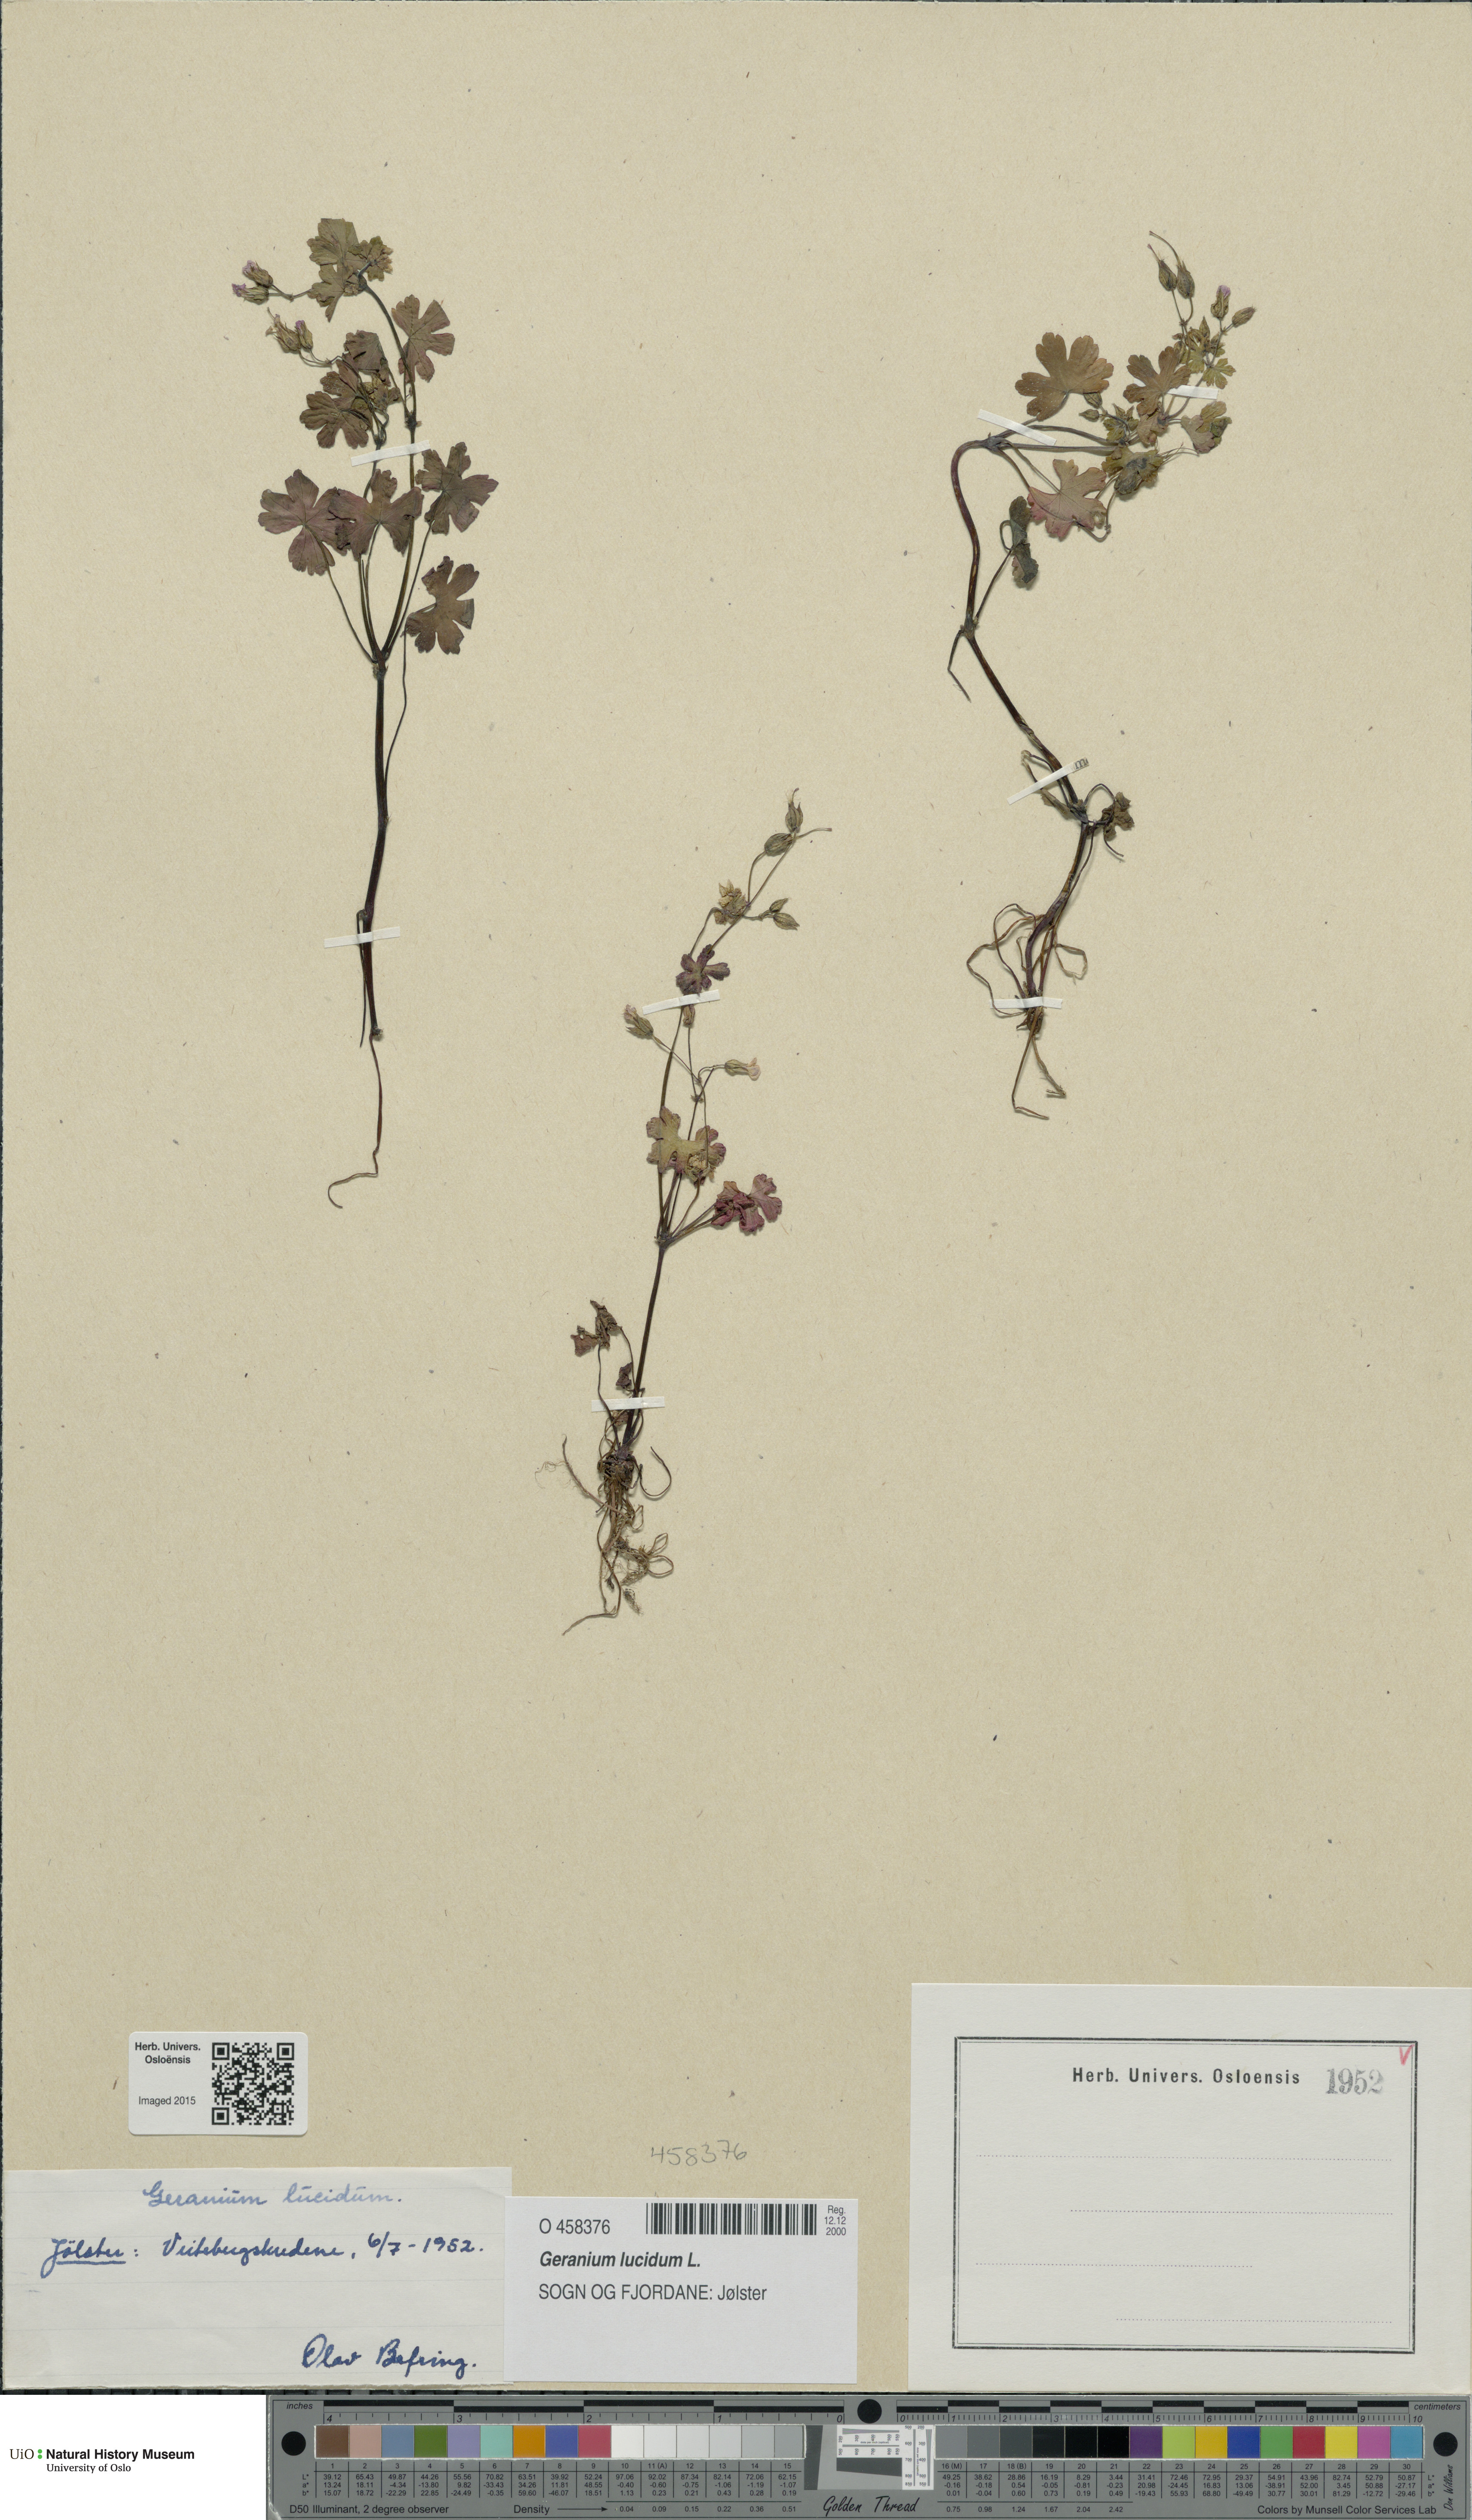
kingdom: Plantae
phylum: Tracheophyta
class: Magnoliopsida
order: Geraniales
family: Geraniaceae
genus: Geranium
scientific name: Geranium lucidum
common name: Shining crane's-bill
